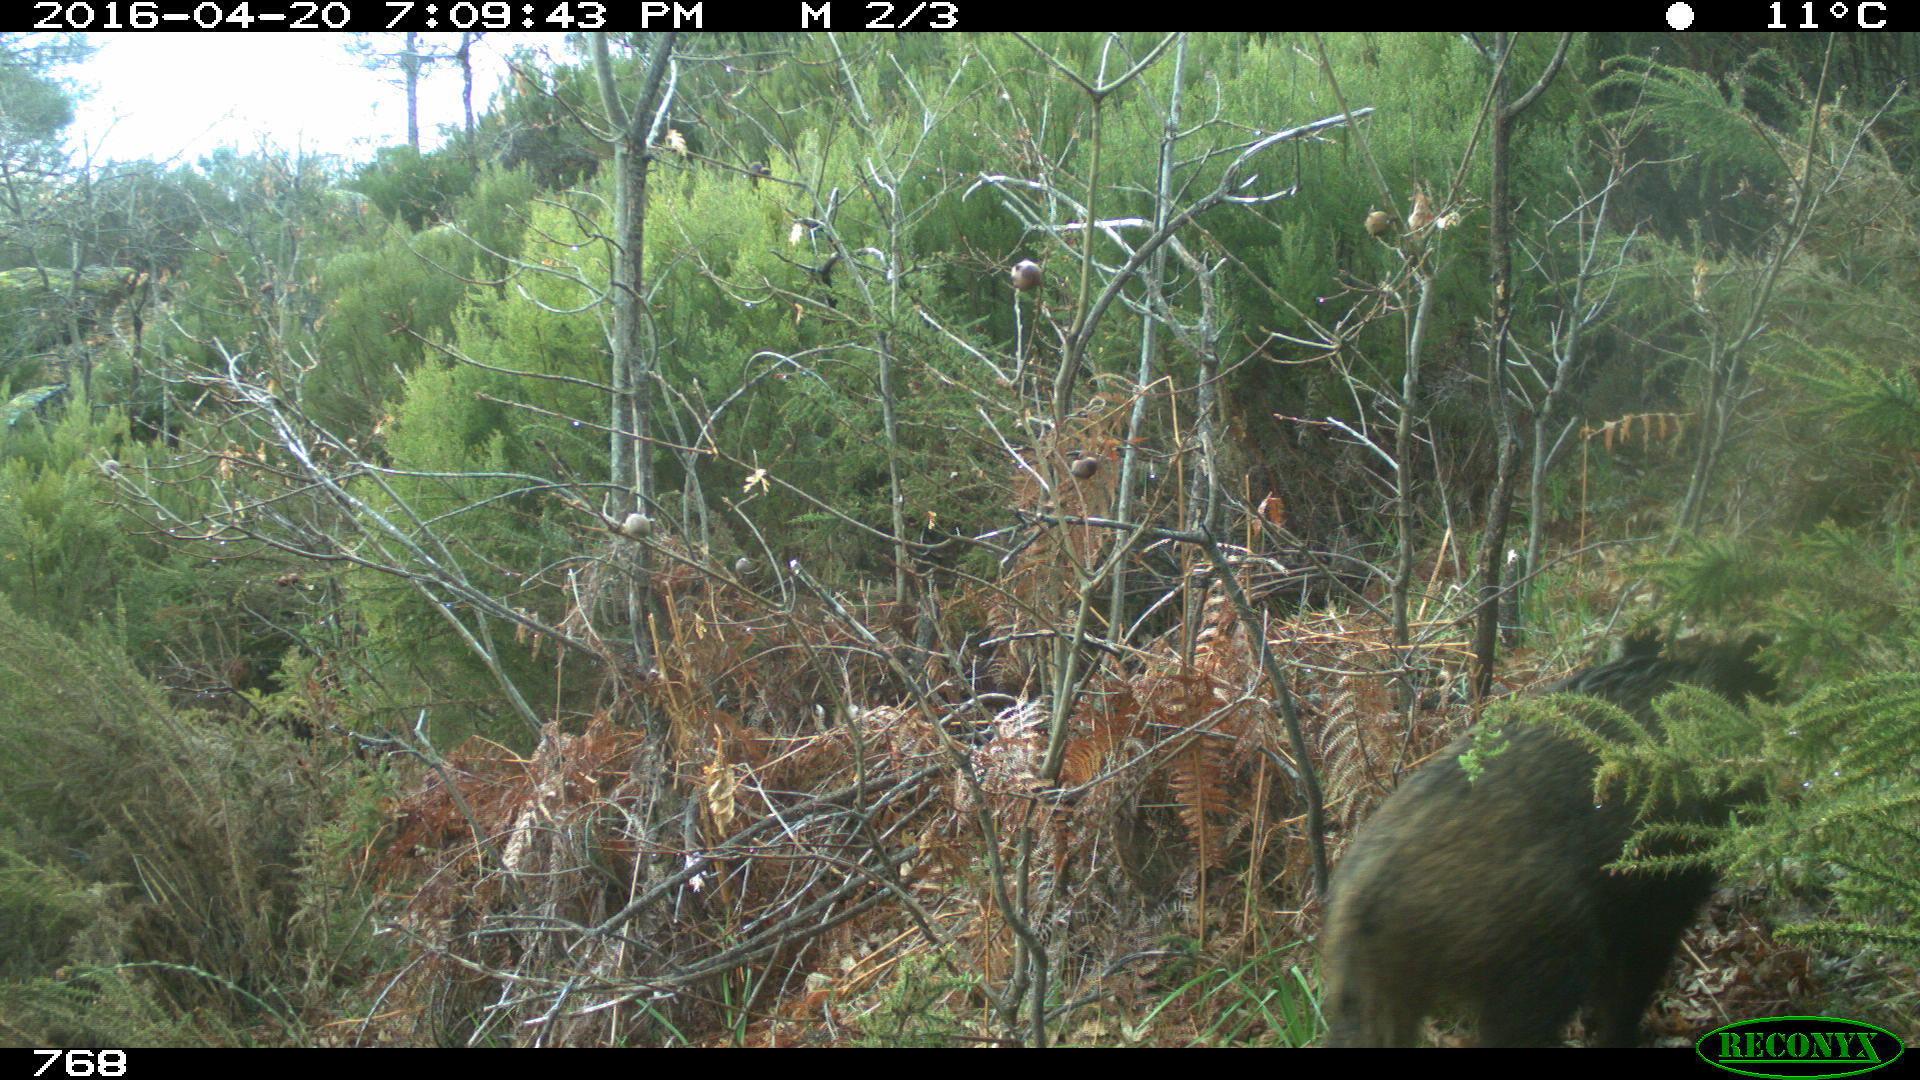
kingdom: Animalia
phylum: Chordata
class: Mammalia
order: Artiodactyla
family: Suidae
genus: Sus
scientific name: Sus scrofa
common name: Wild boar
